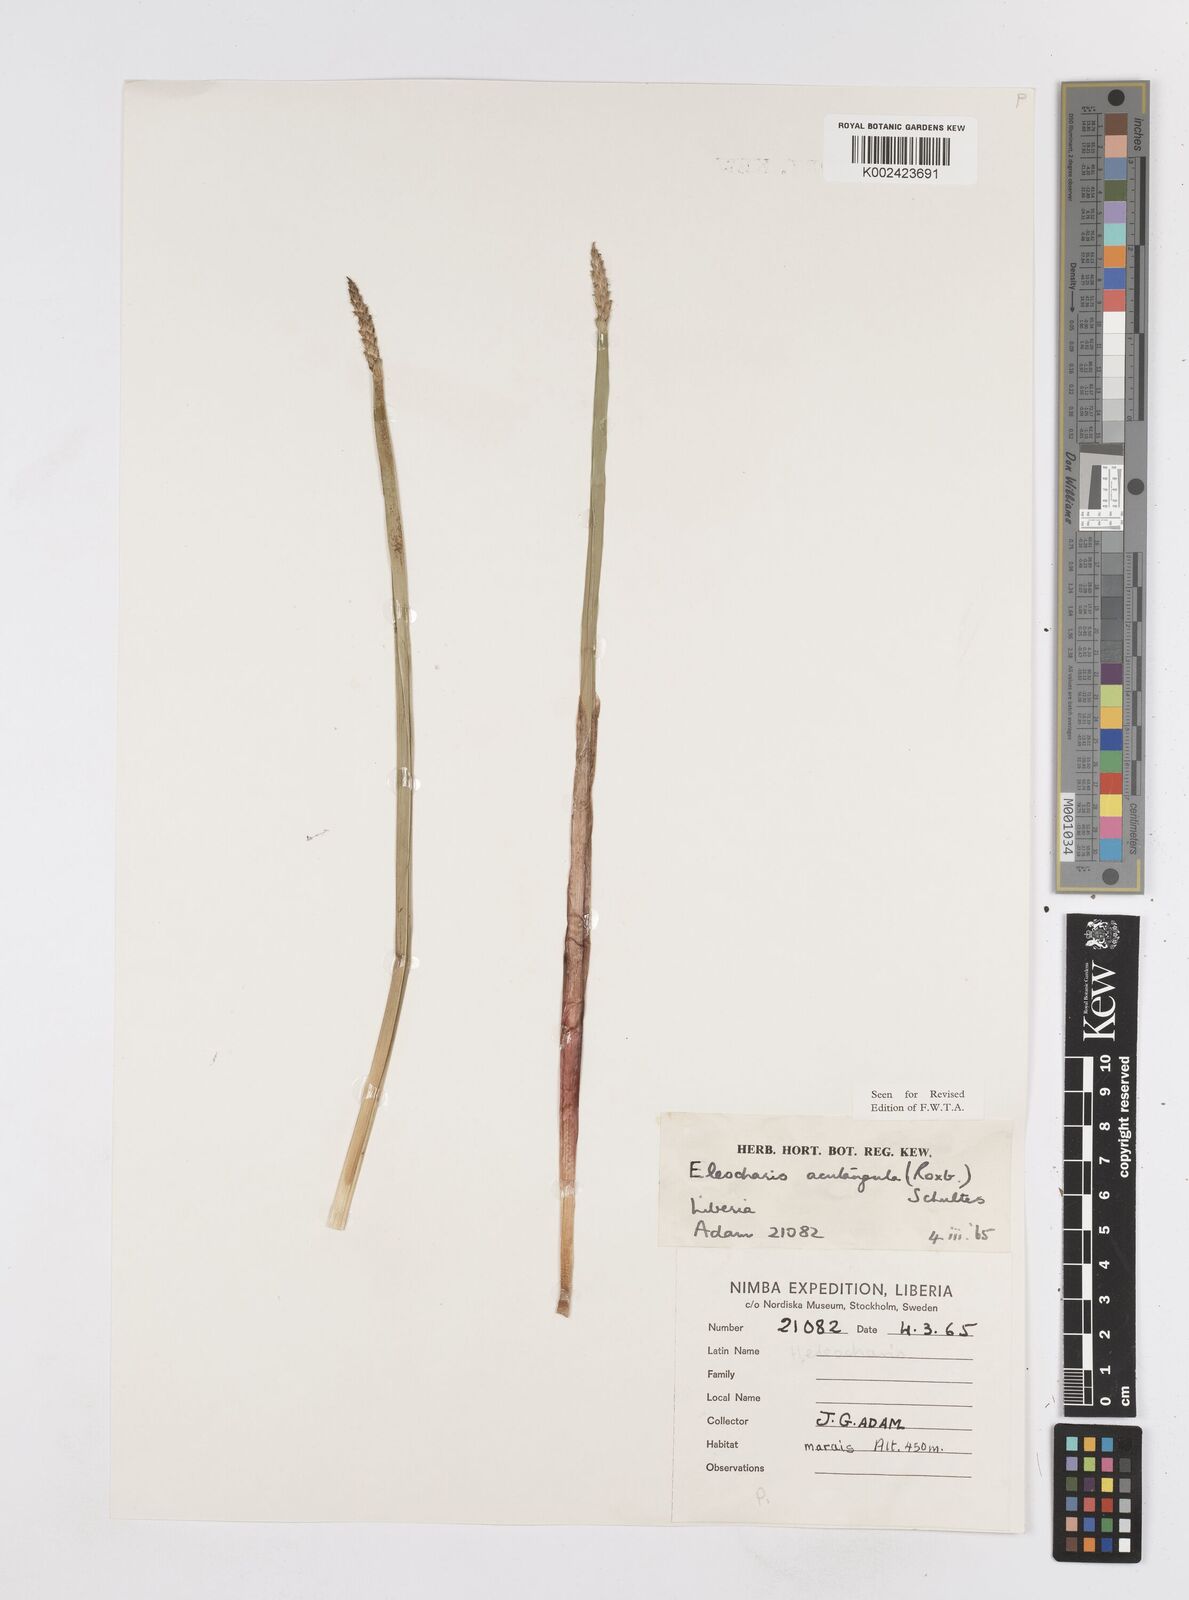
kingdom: Plantae
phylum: Tracheophyta
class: Liliopsida
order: Poales
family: Cyperaceae
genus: Eleocharis
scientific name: Eleocharis acutangula
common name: Acute spikerush
